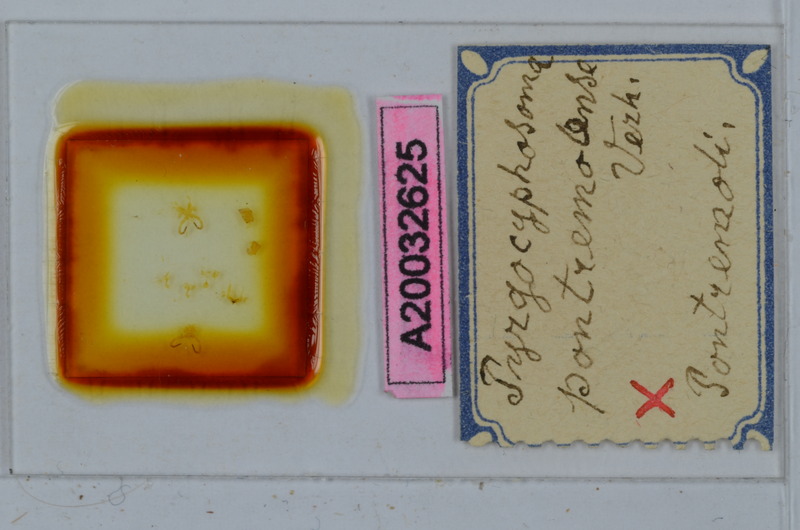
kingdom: Animalia
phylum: Arthropoda
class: Diplopoda
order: Chordeumatida
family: Craspedosomatidae
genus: Pyrgocyphosoma
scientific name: Pyrgocyphosoma pontremolense
